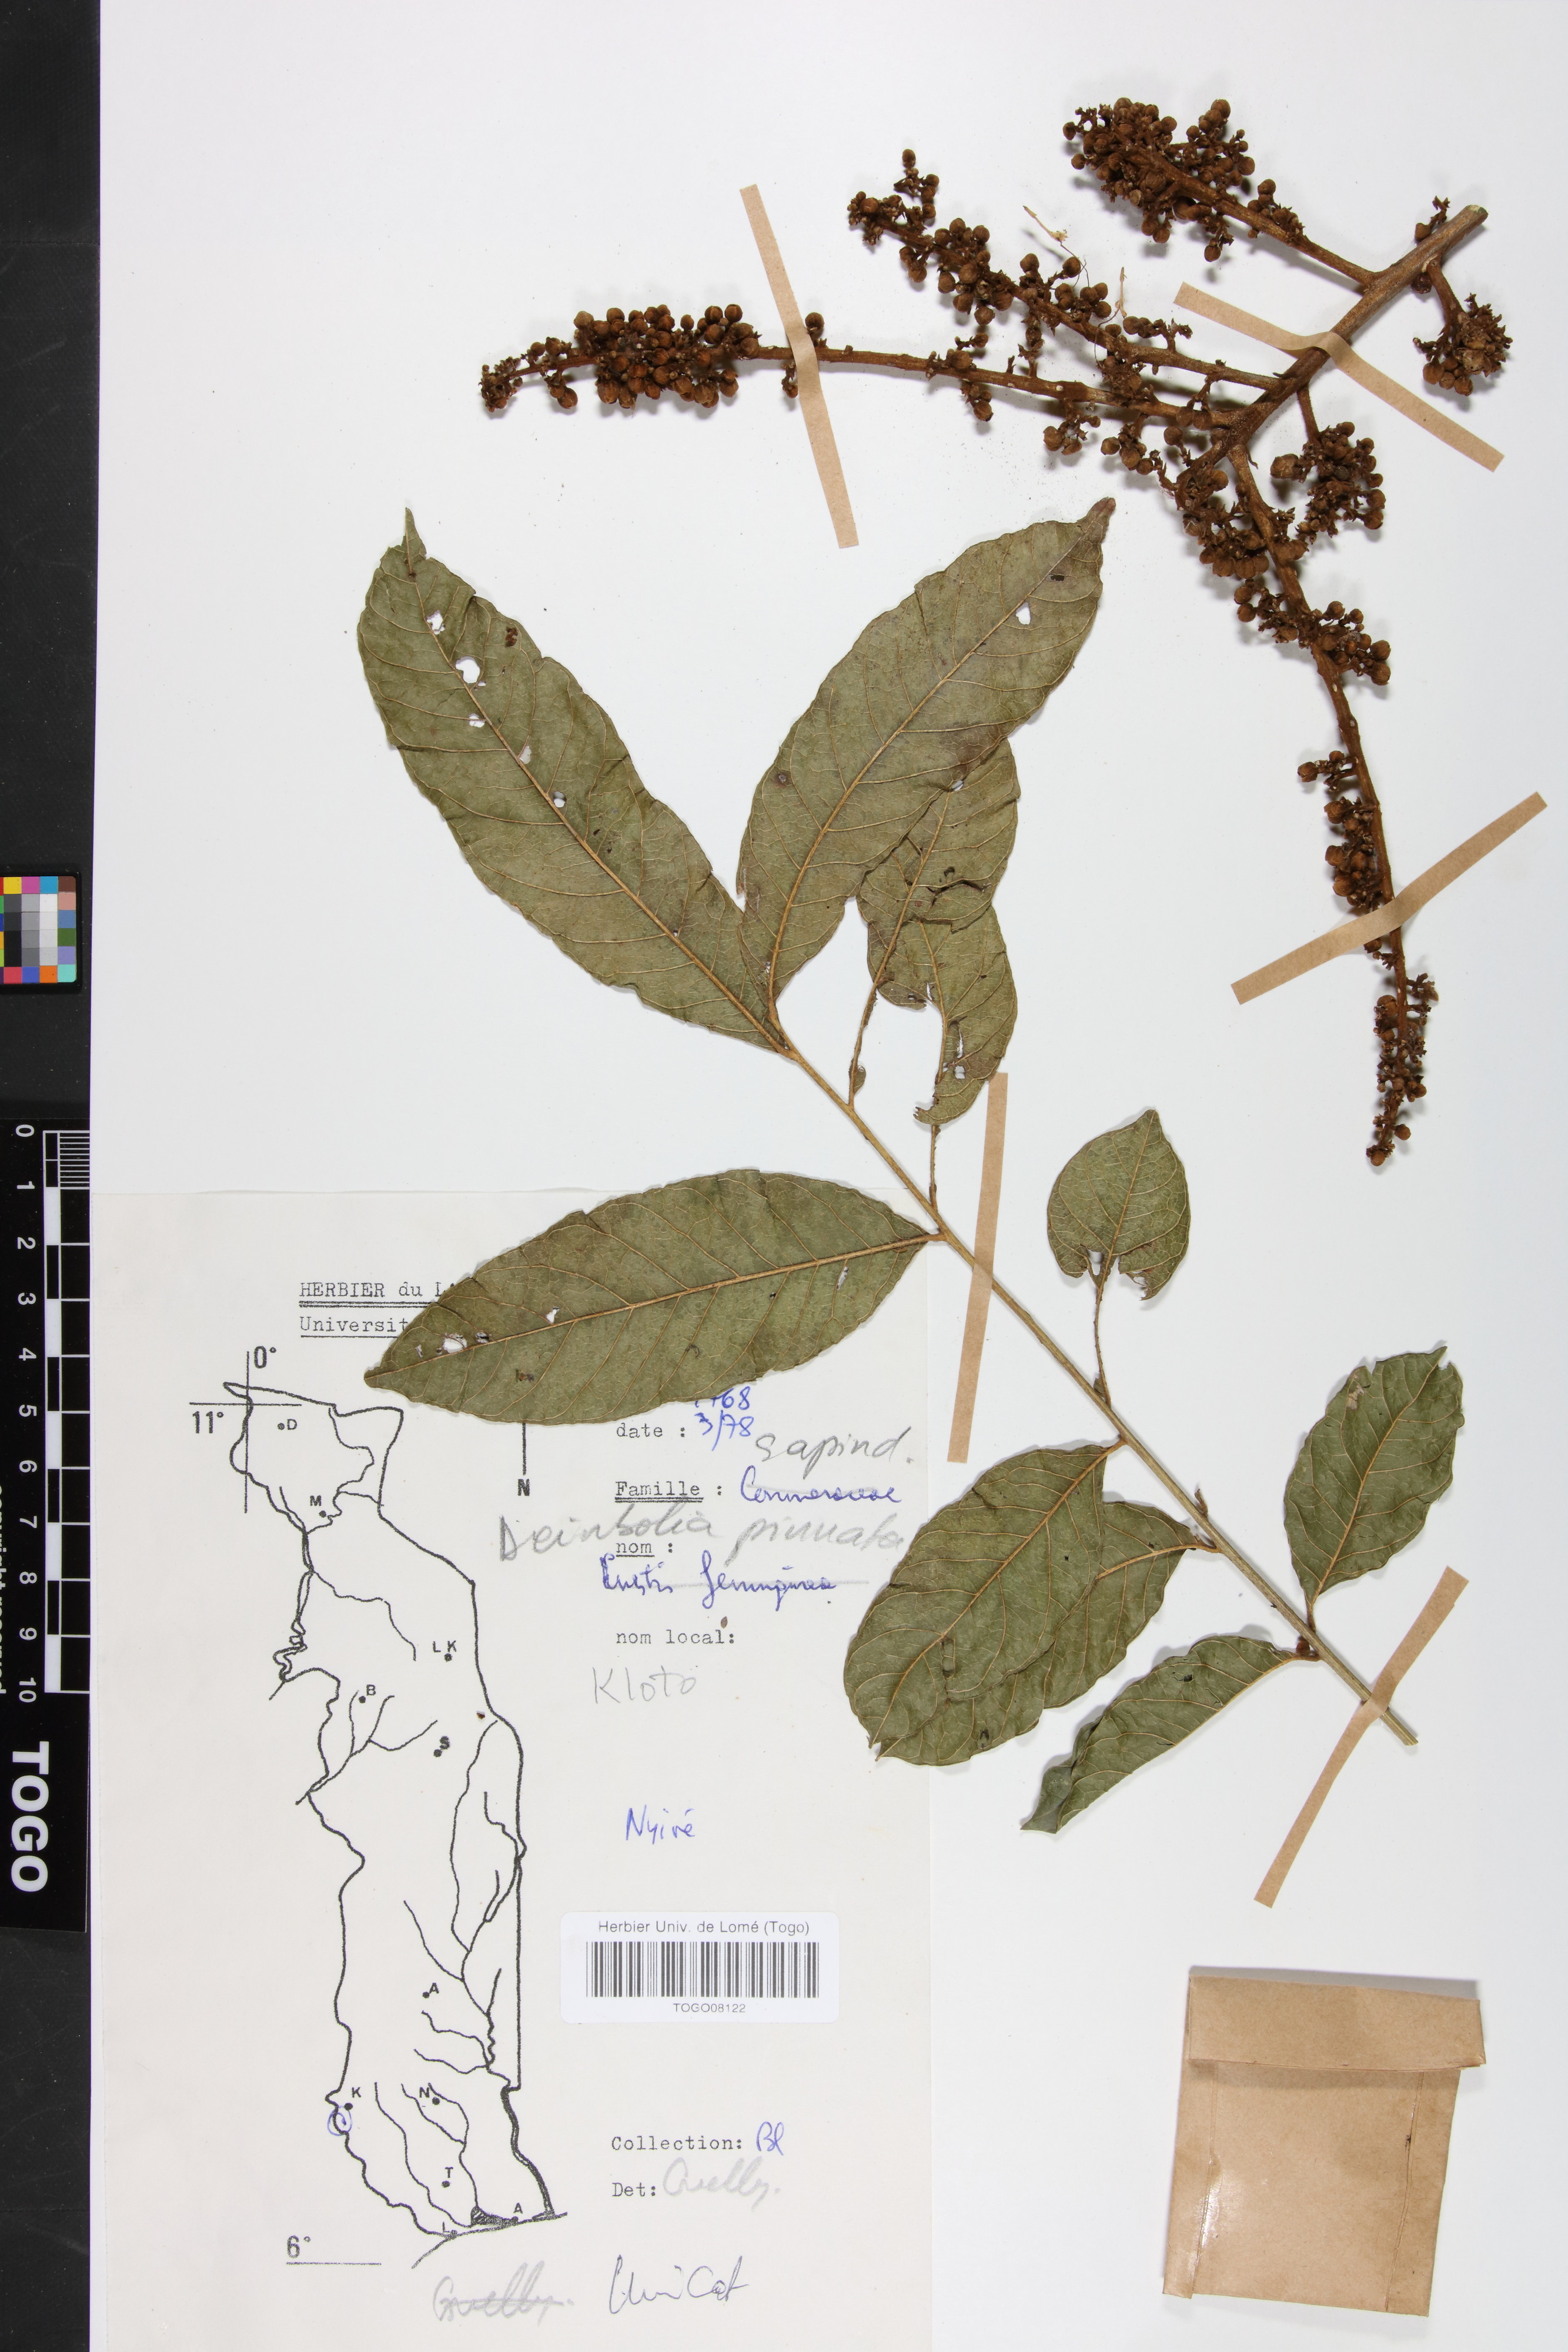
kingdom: Plantae
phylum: Tracheophyta
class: Magnoliopsida
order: Sapindales
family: Sapindaceae
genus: Deinbollia
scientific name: Deinbollia pinnata
